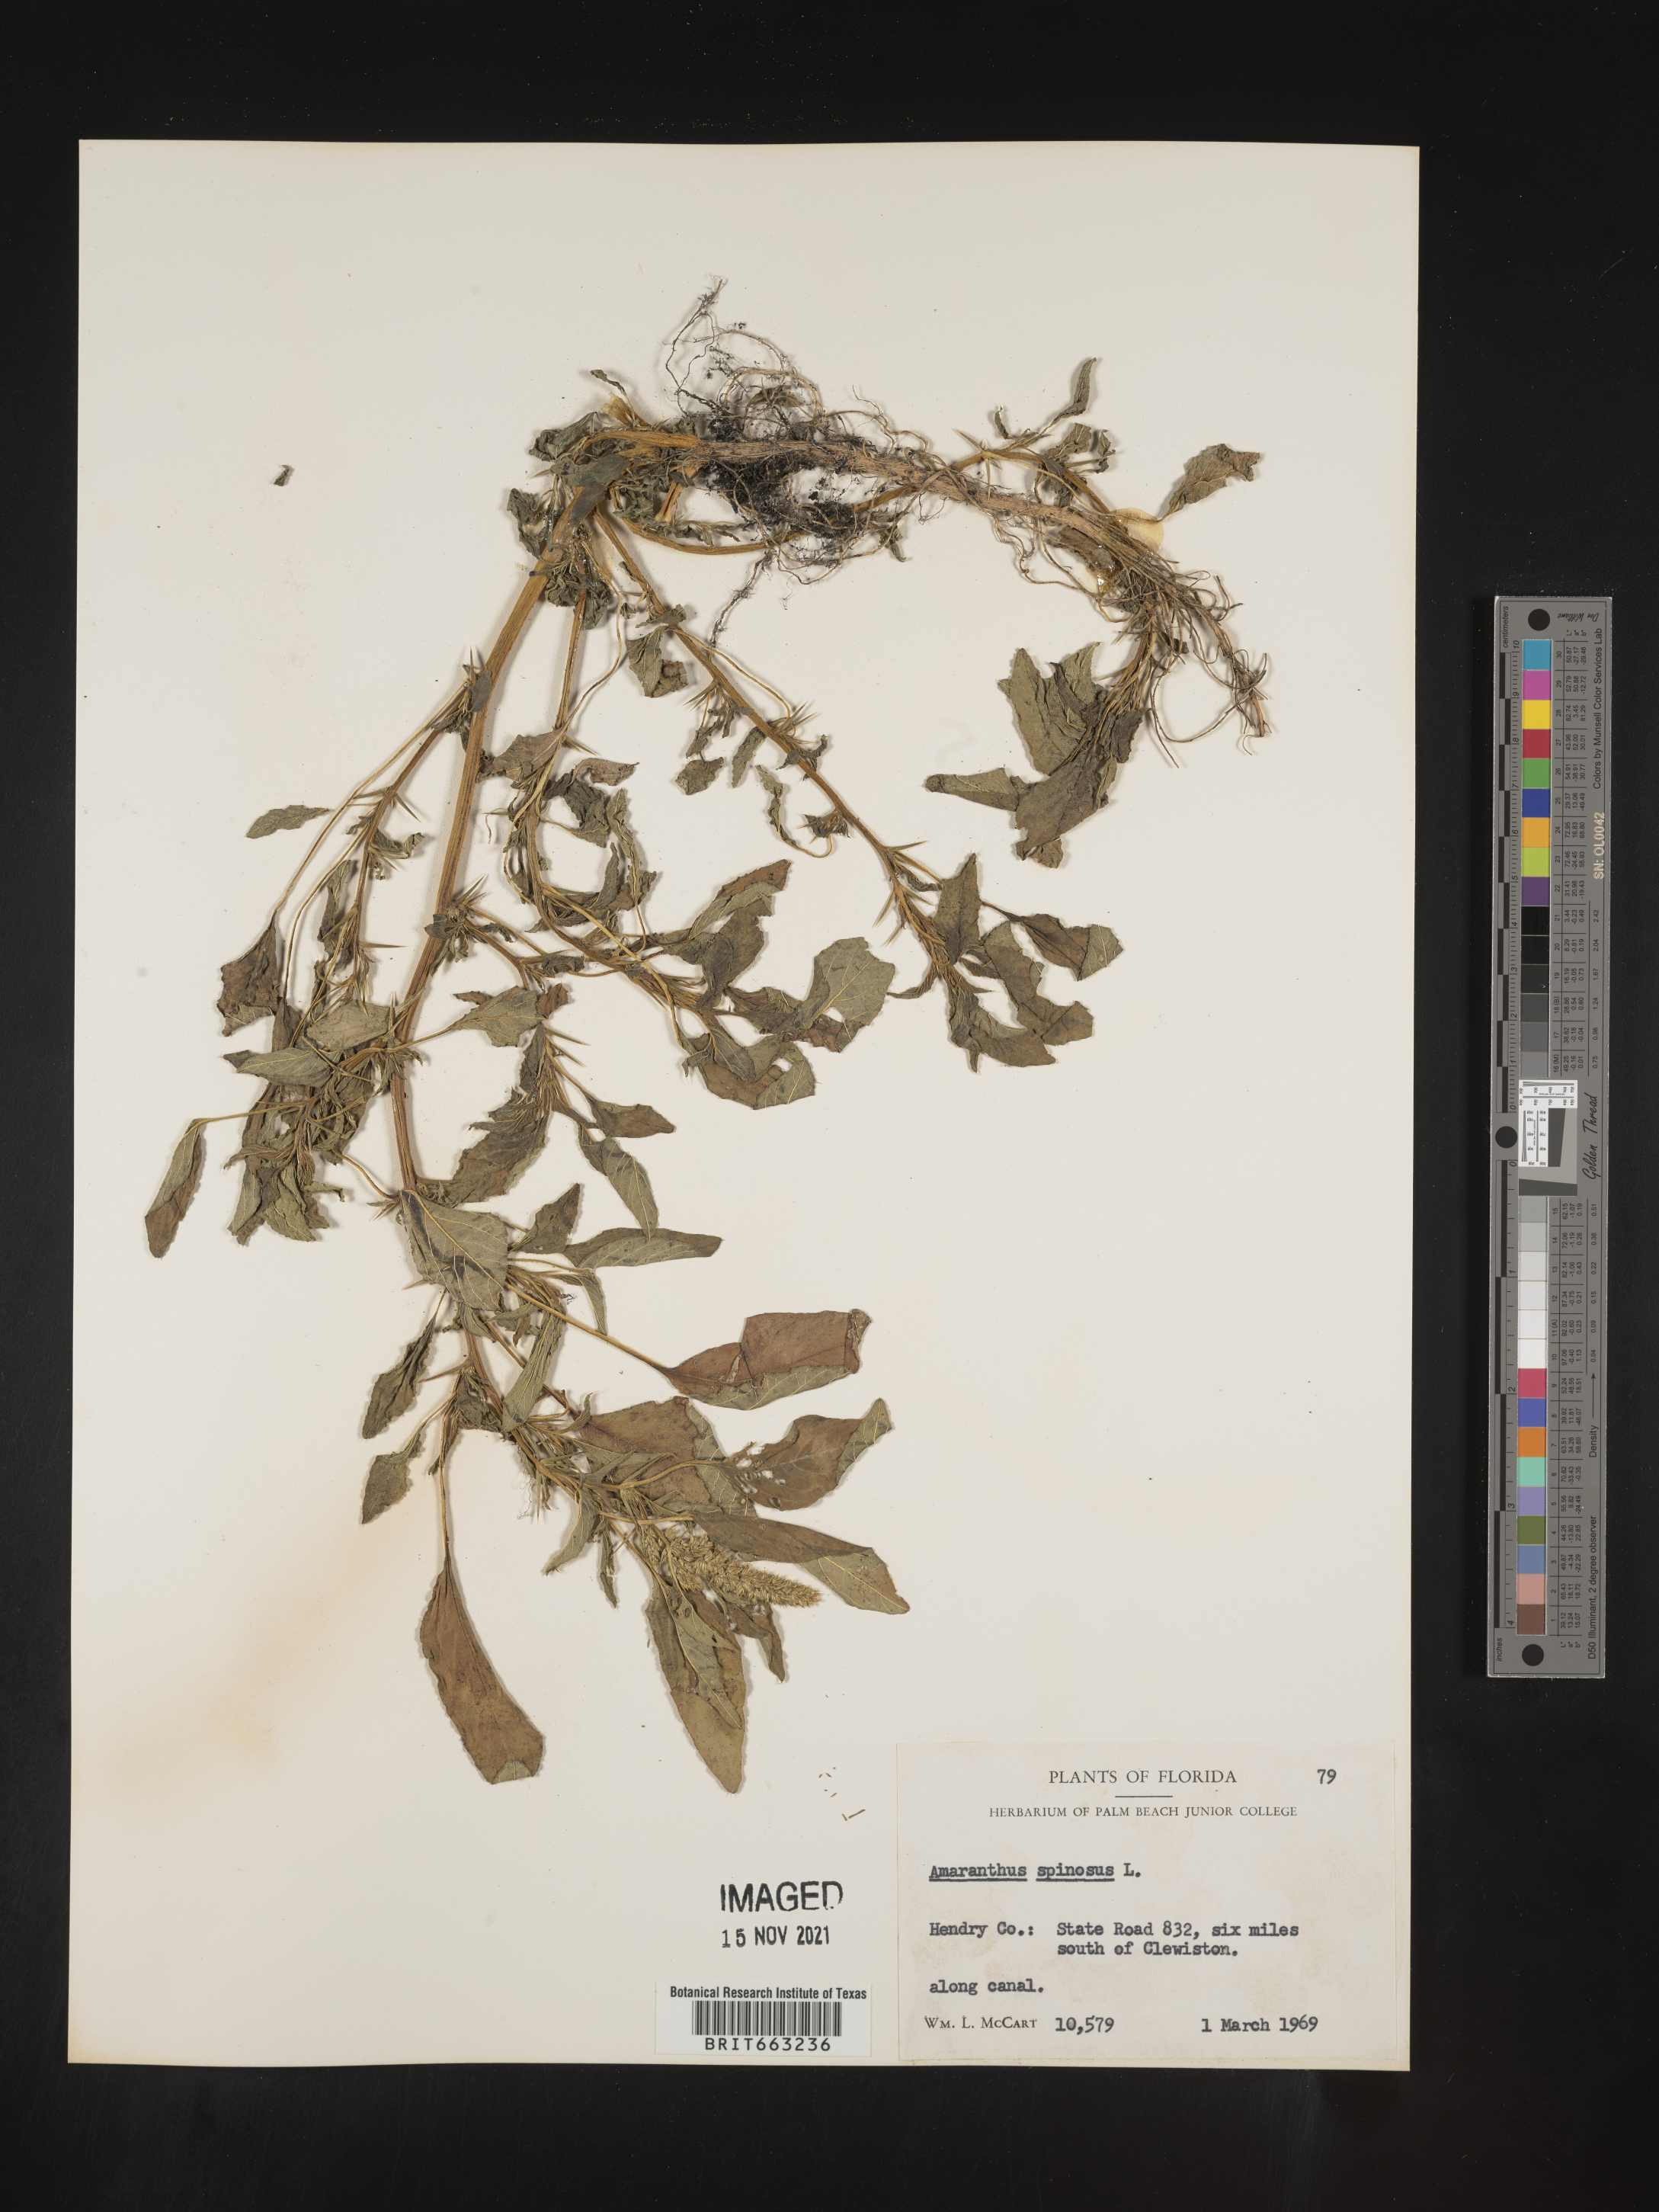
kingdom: Plantae
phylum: Tracheophyta
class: Magnoliopsida
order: Caryophyllales
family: Amaranthaceae
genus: Amaranthus
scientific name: Amaranthus spinosus
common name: Spiny amaranth
